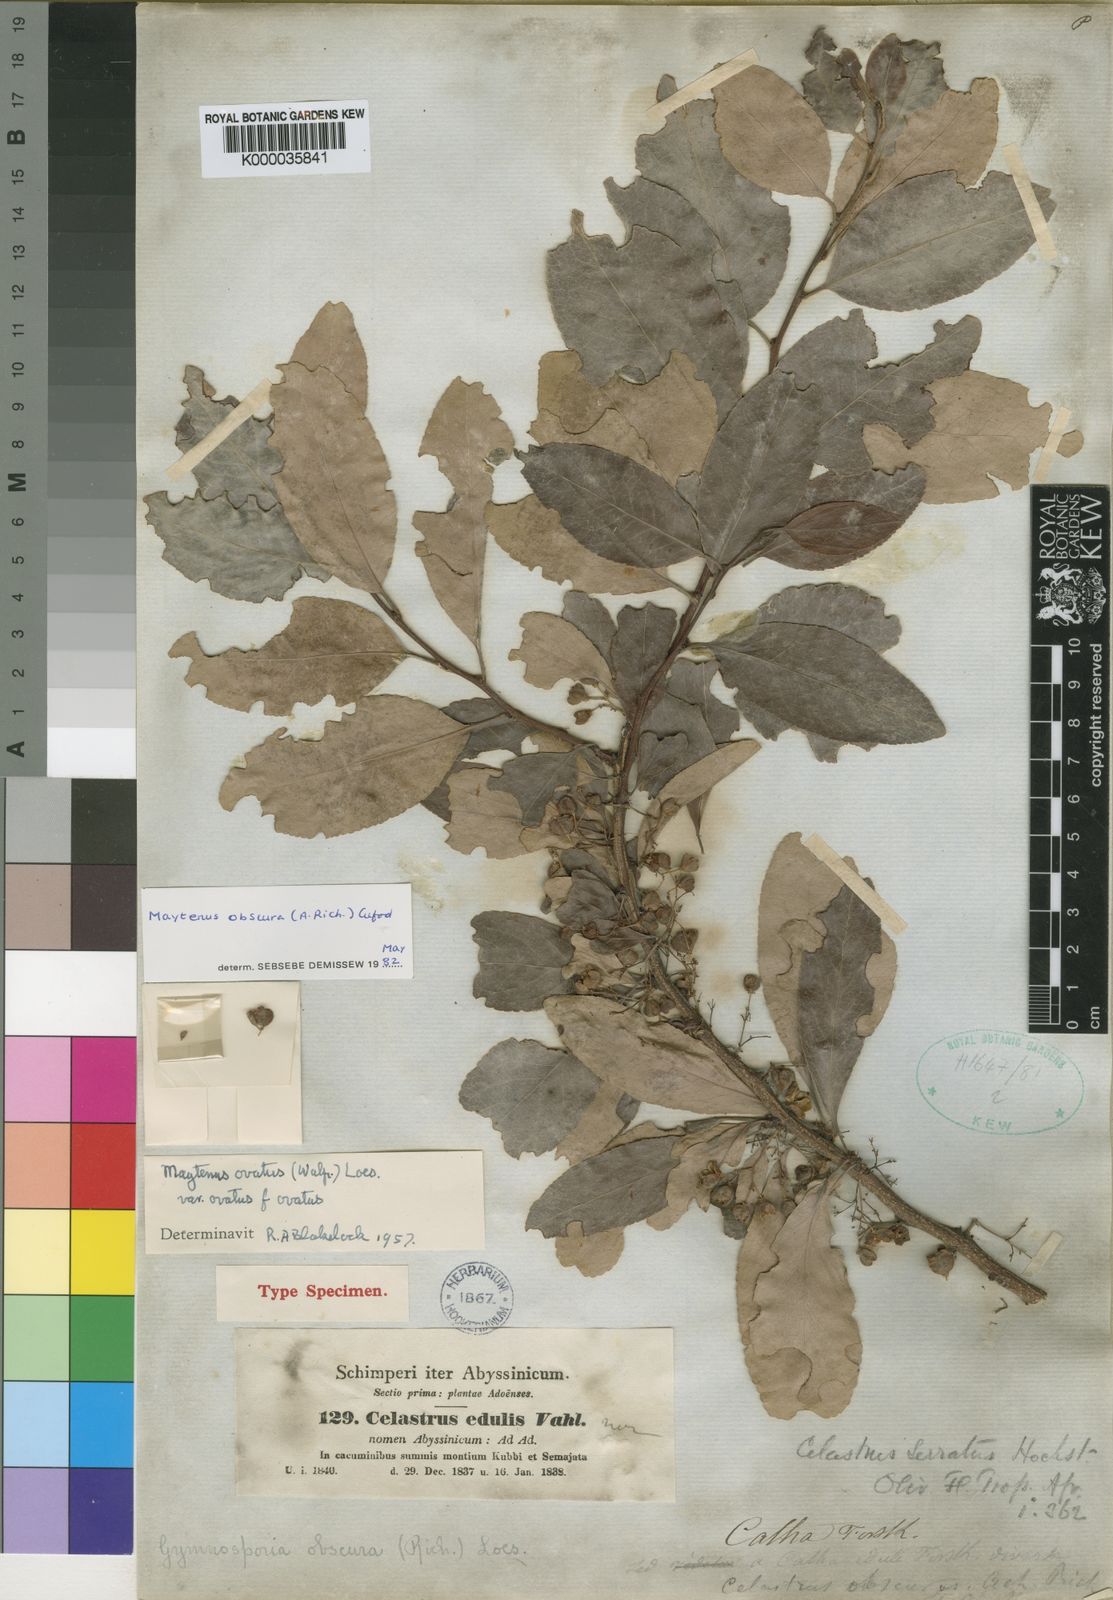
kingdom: Plantae
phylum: Tracheophyta
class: Magnoliopsida
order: Celastrales
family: Celastraceae
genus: Gymnosporia
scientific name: Gymnosporia obscura
